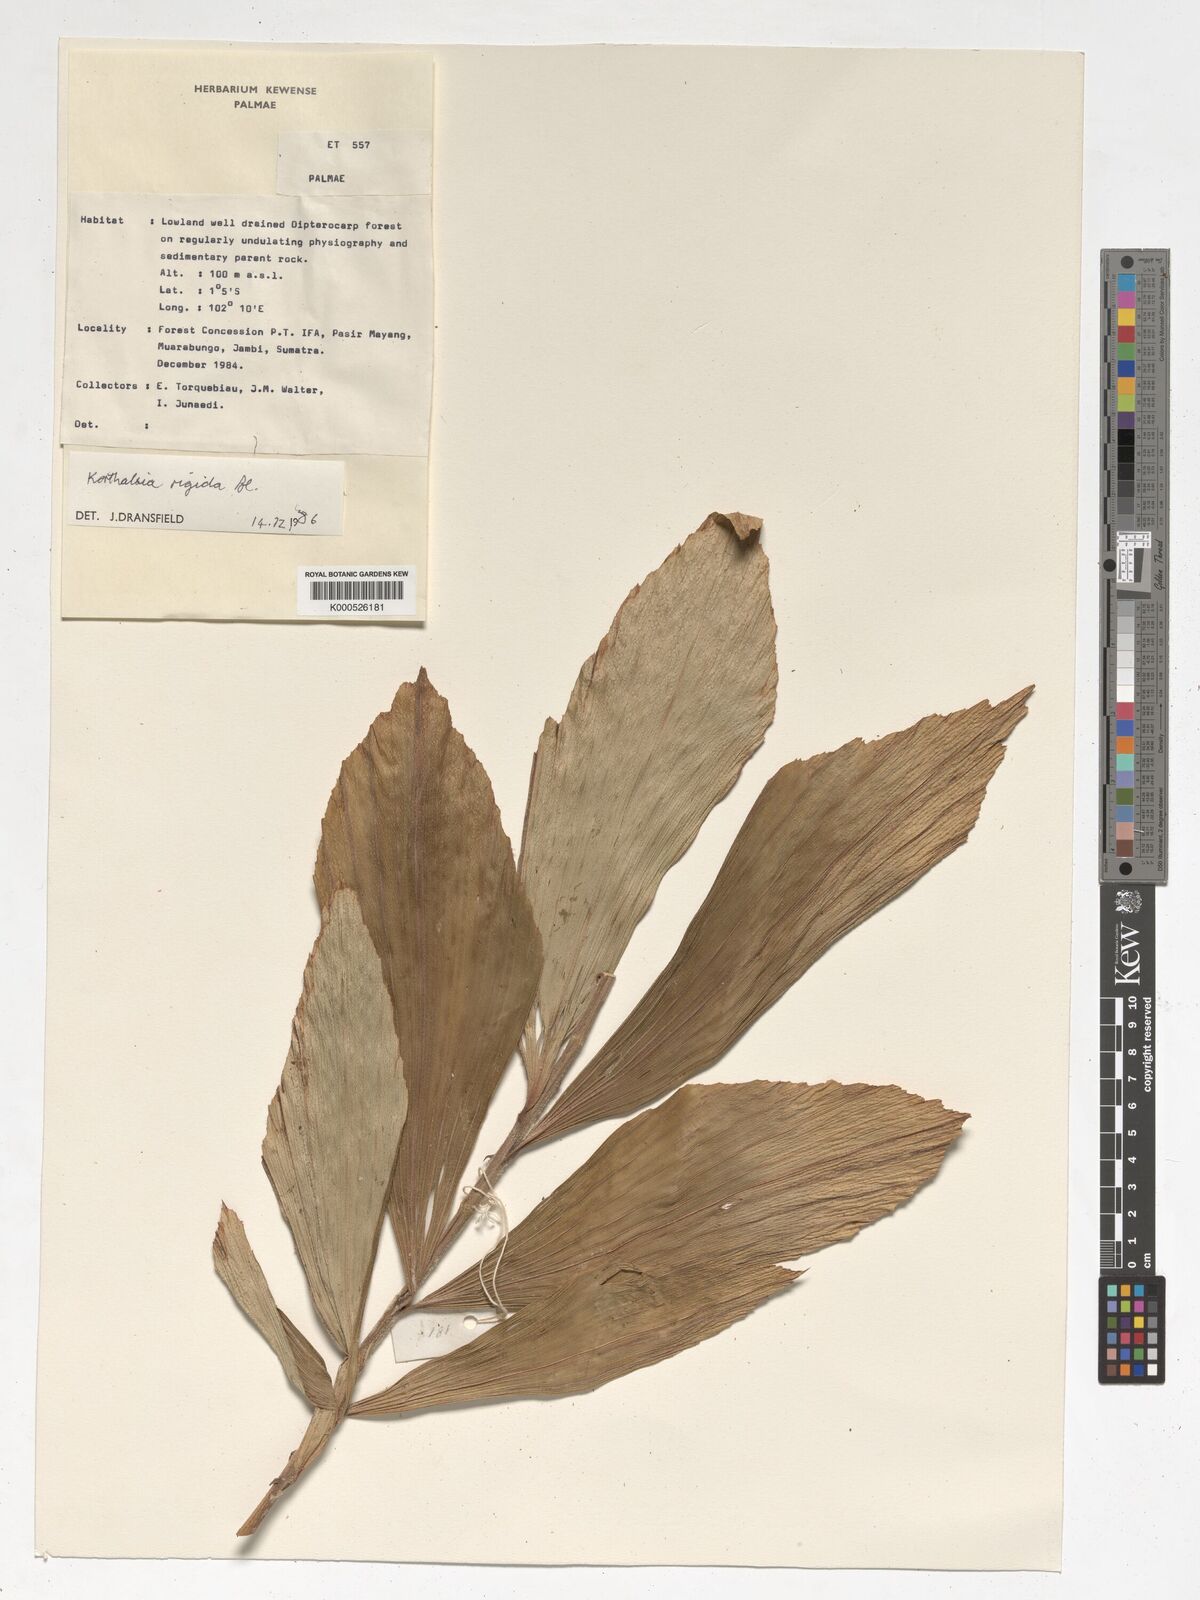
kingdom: Plantae
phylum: Tracheophyta
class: Liliopsida
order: Arecales
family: Arecaceae
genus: Korthalsia
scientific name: Korthalsia rigida
